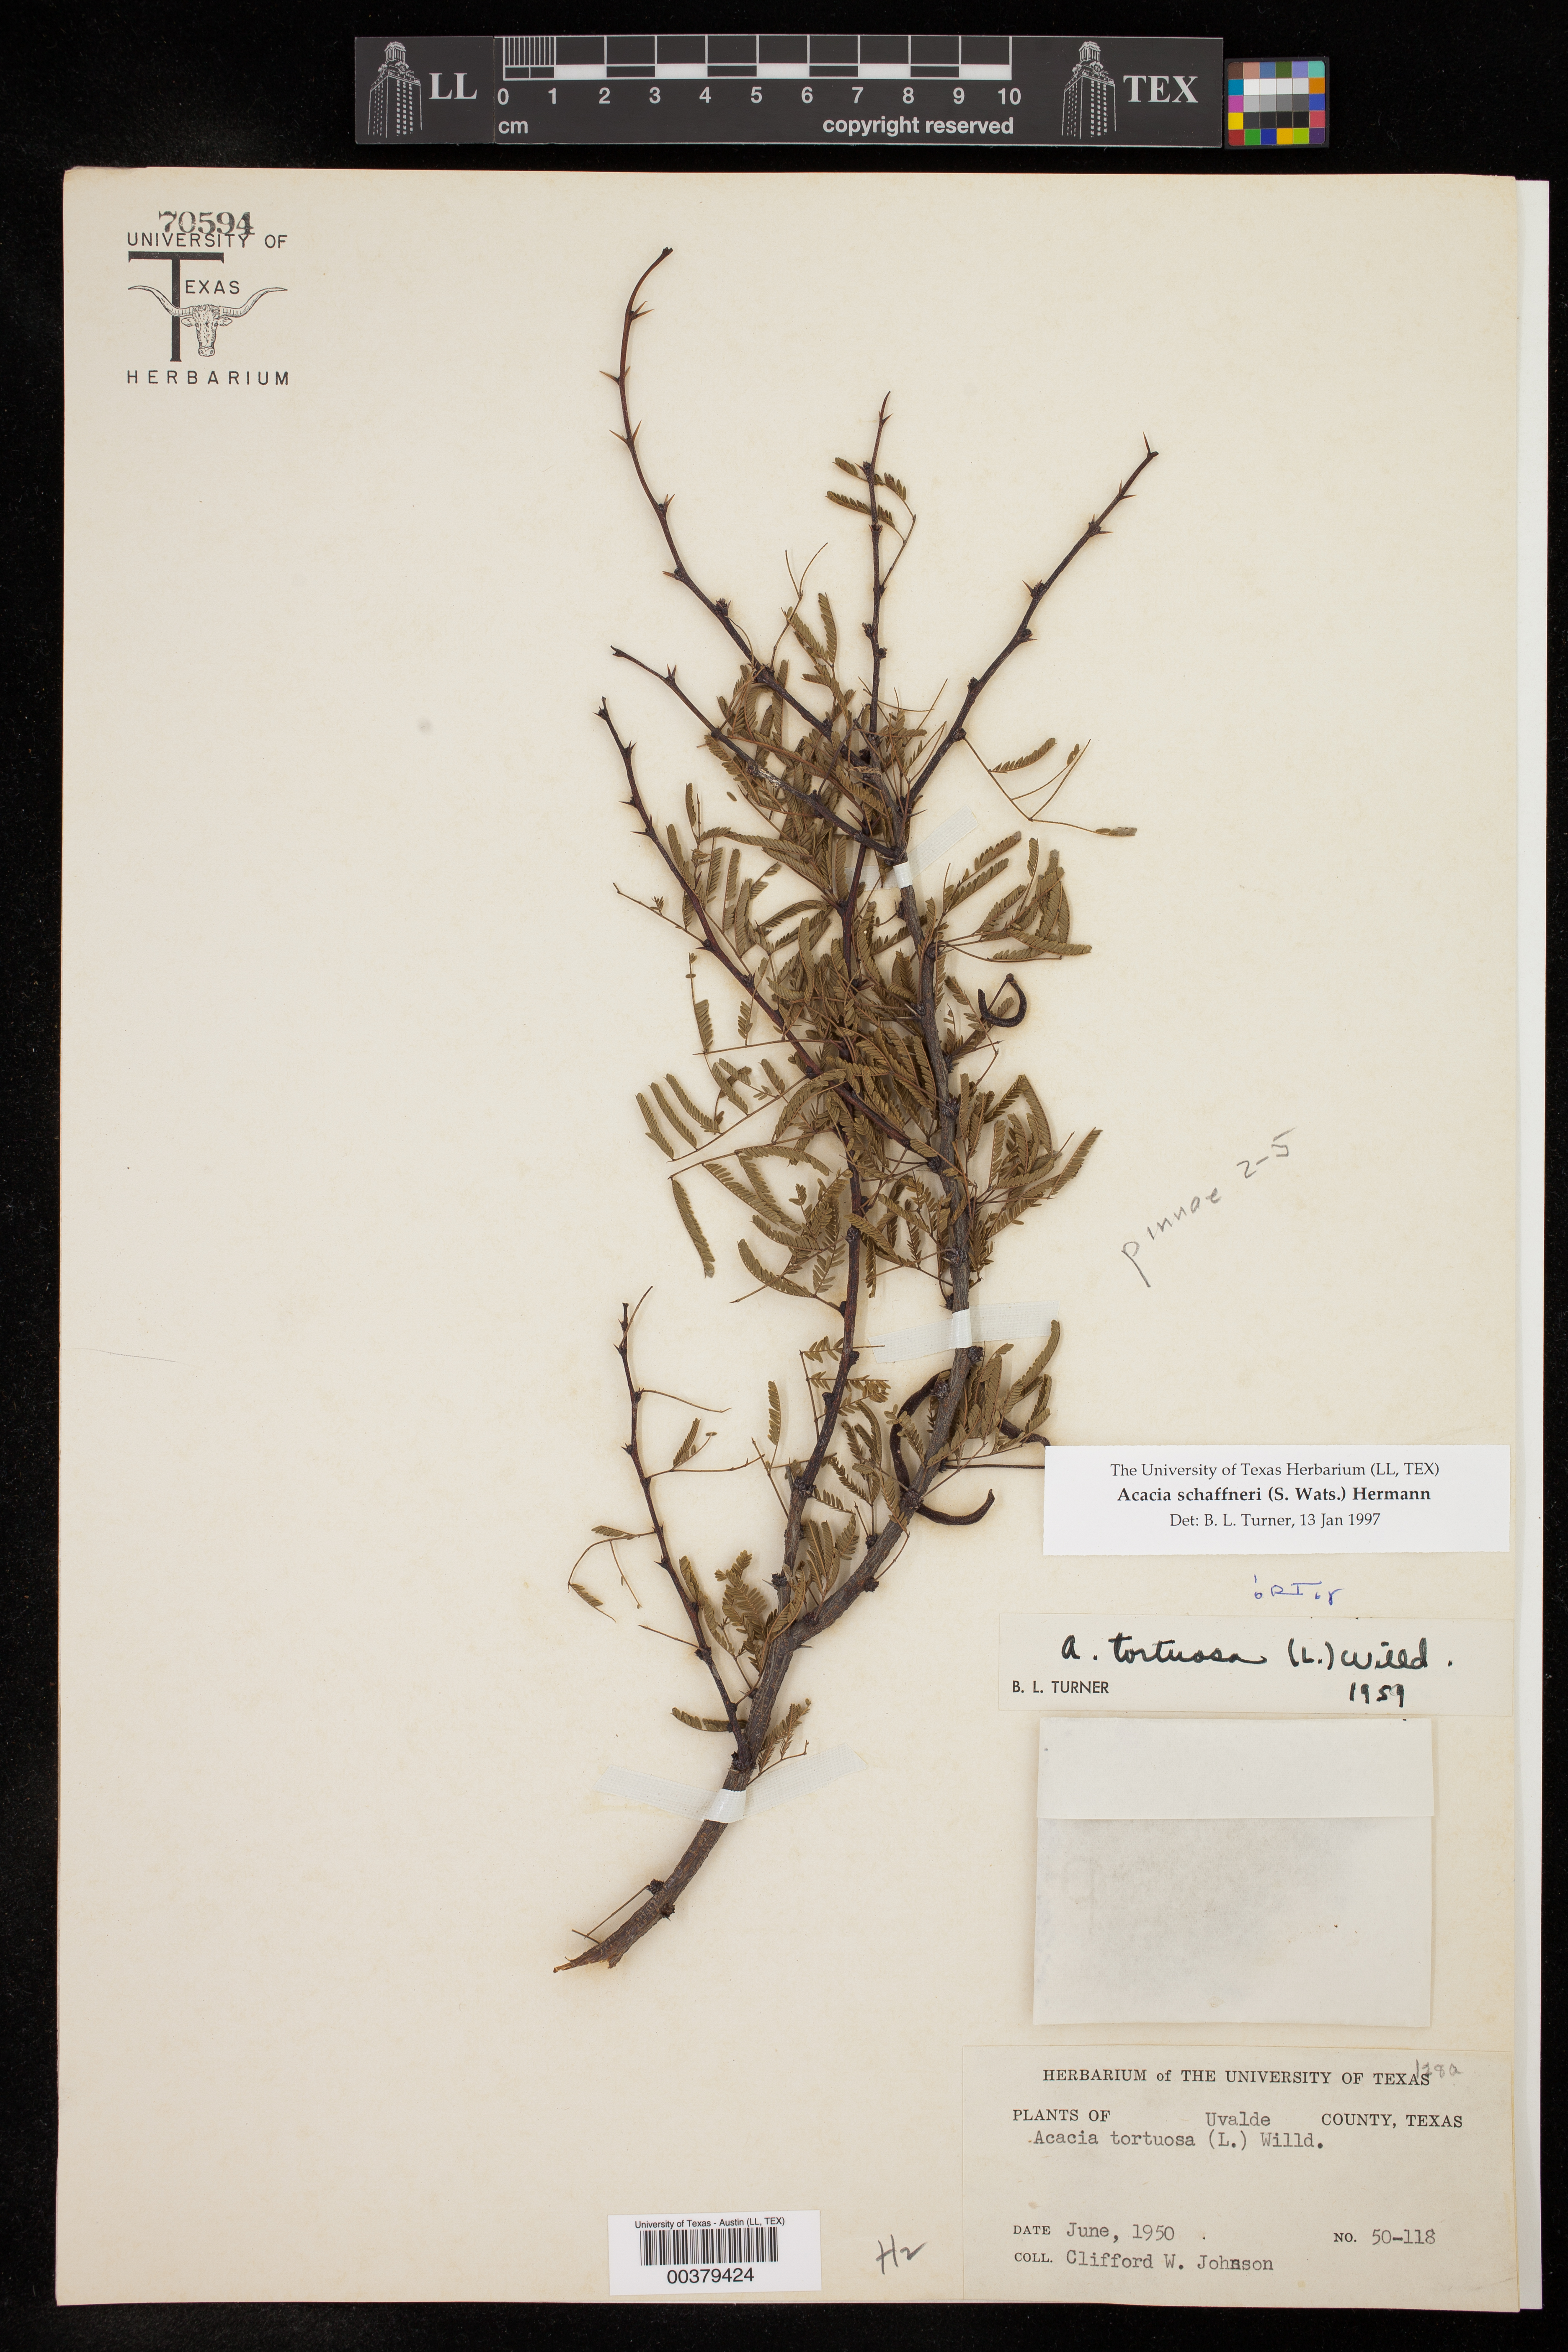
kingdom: Plantae
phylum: Tracheophyta
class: Magnoliopsida
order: Fabales
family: Fabaceae
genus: Vachellia
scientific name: Vachellia schaffneri
